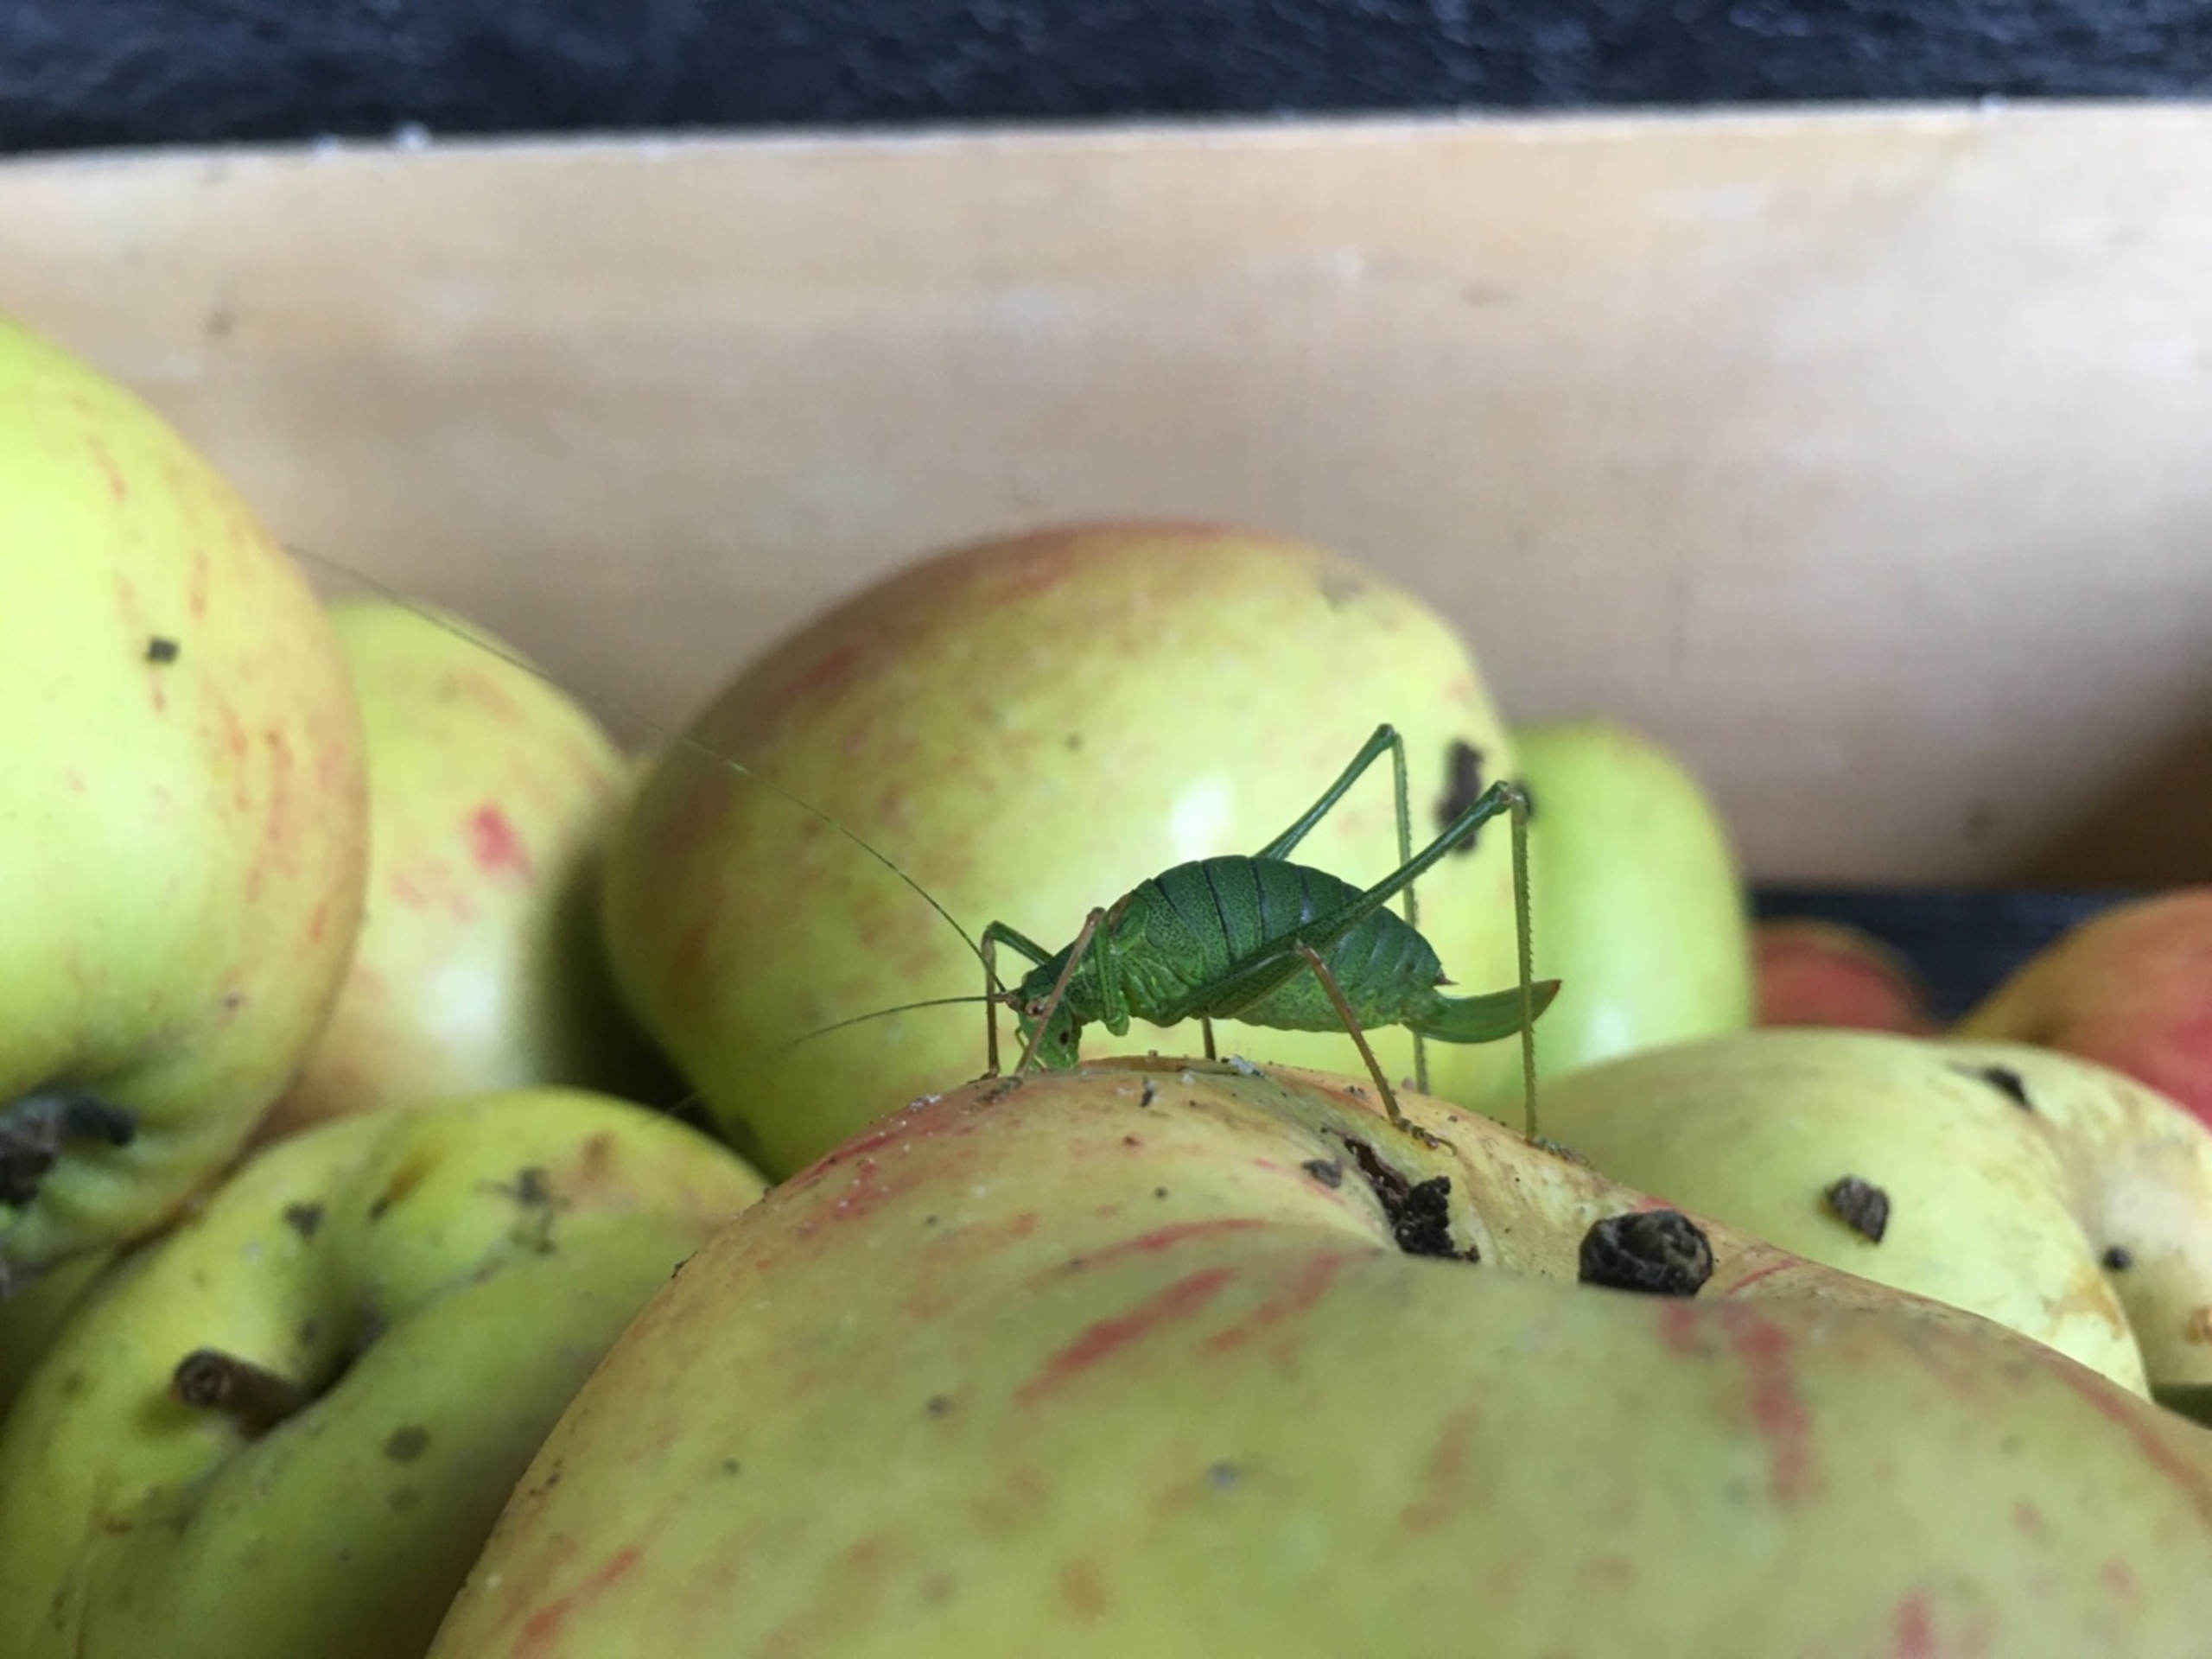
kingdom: Animalia
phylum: Arthropoda
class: Insecta
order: Orthoptera
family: Tettigoniidae
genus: Leptophyes
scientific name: Leptophyes punctatissima
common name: Krumknivgræshoppe
